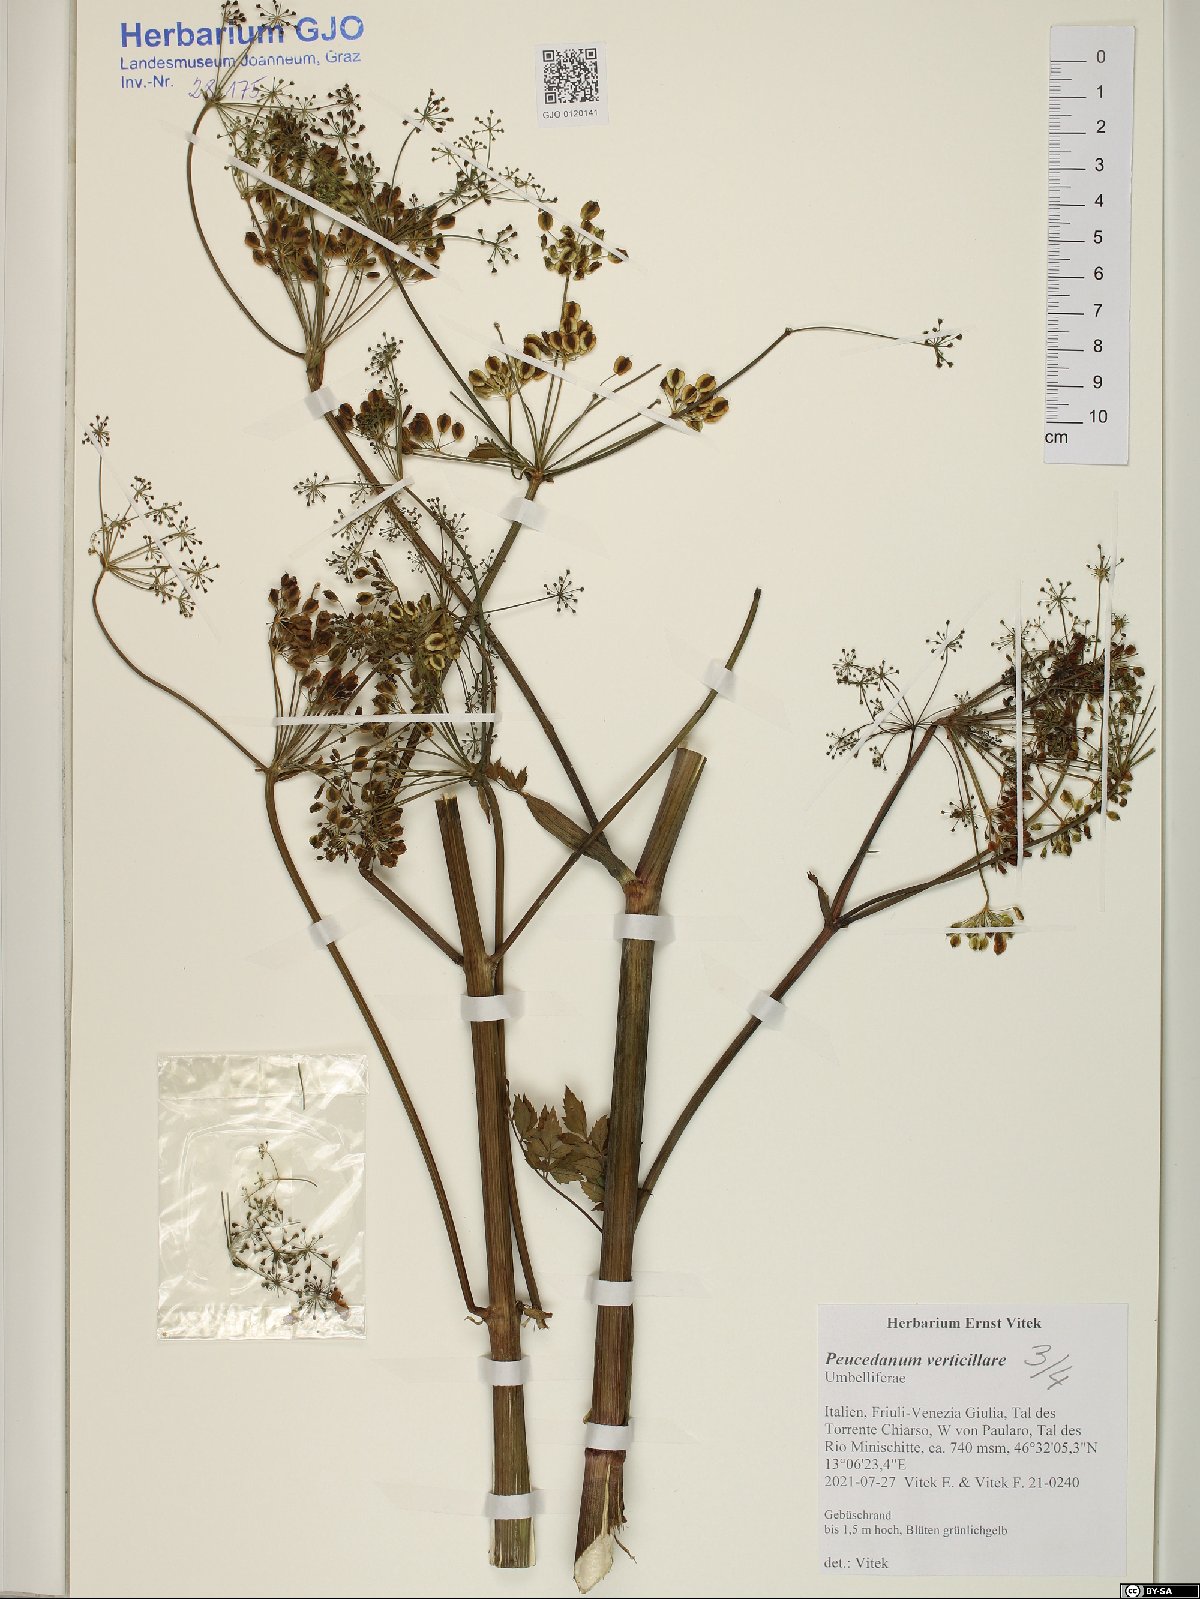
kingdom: Plantae
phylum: Tracheophyta
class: Magnoliopsida
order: Apiales
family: Apiaceae
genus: Tommasinia
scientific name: Tommasinia altissima
